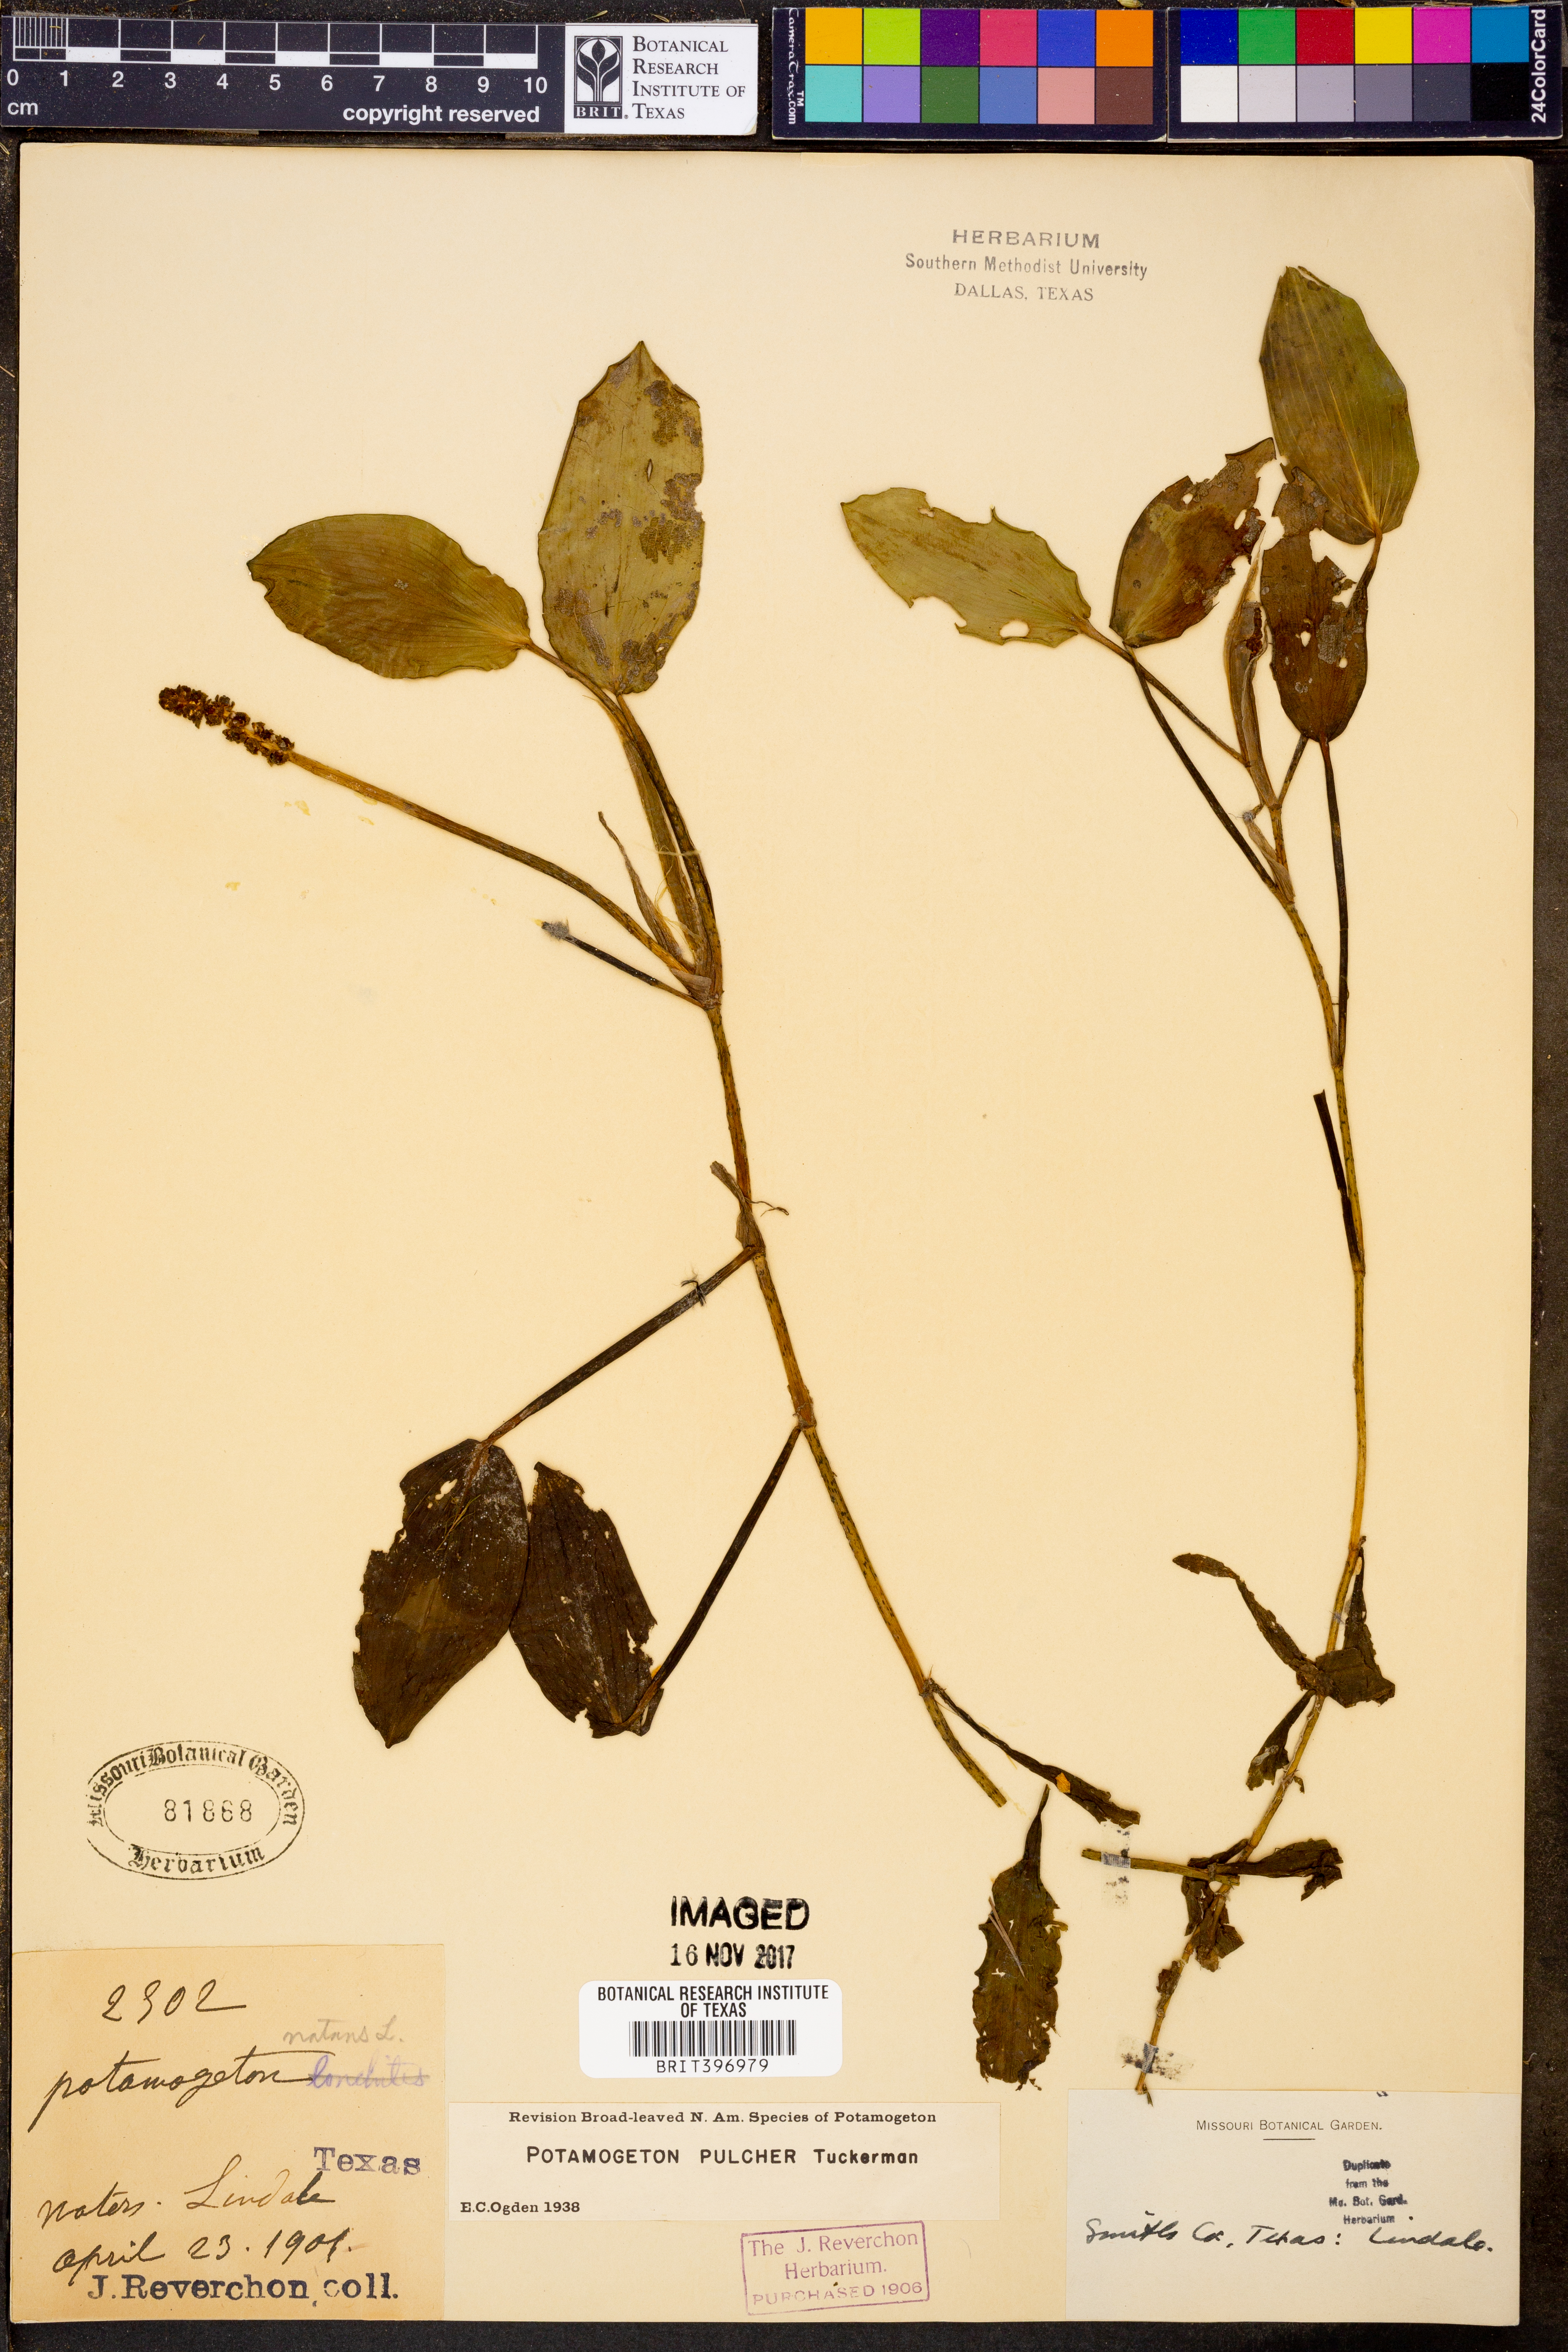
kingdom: Plantae
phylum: Tracheophyta
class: Liliopsida
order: Alismatales
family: Potamogetonaceae
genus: Potamogeton
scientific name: Potamogeton nitens
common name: Pondweed
